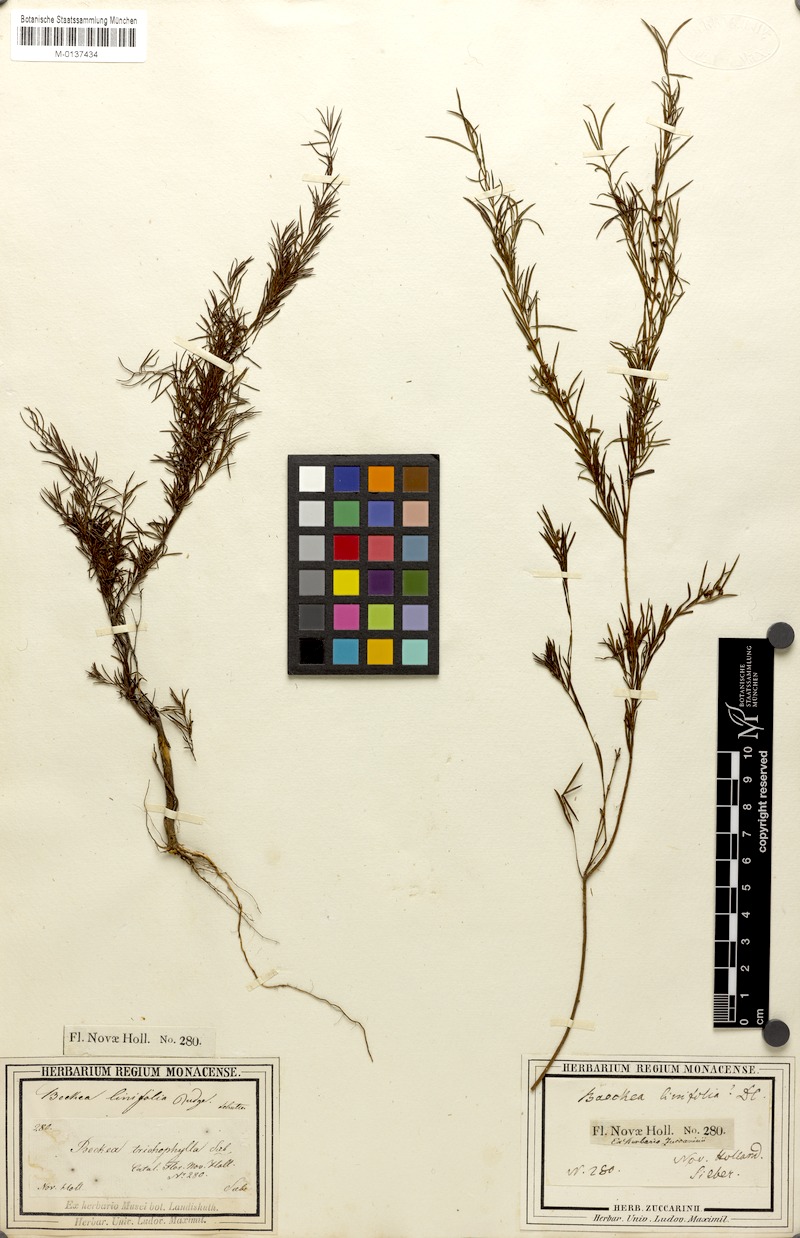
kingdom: Plantae
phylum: Tracheophyta
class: Magnoliopsida
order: Myrtales
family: Myrtaceae
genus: Baeckea
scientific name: Baeckea linifolia
